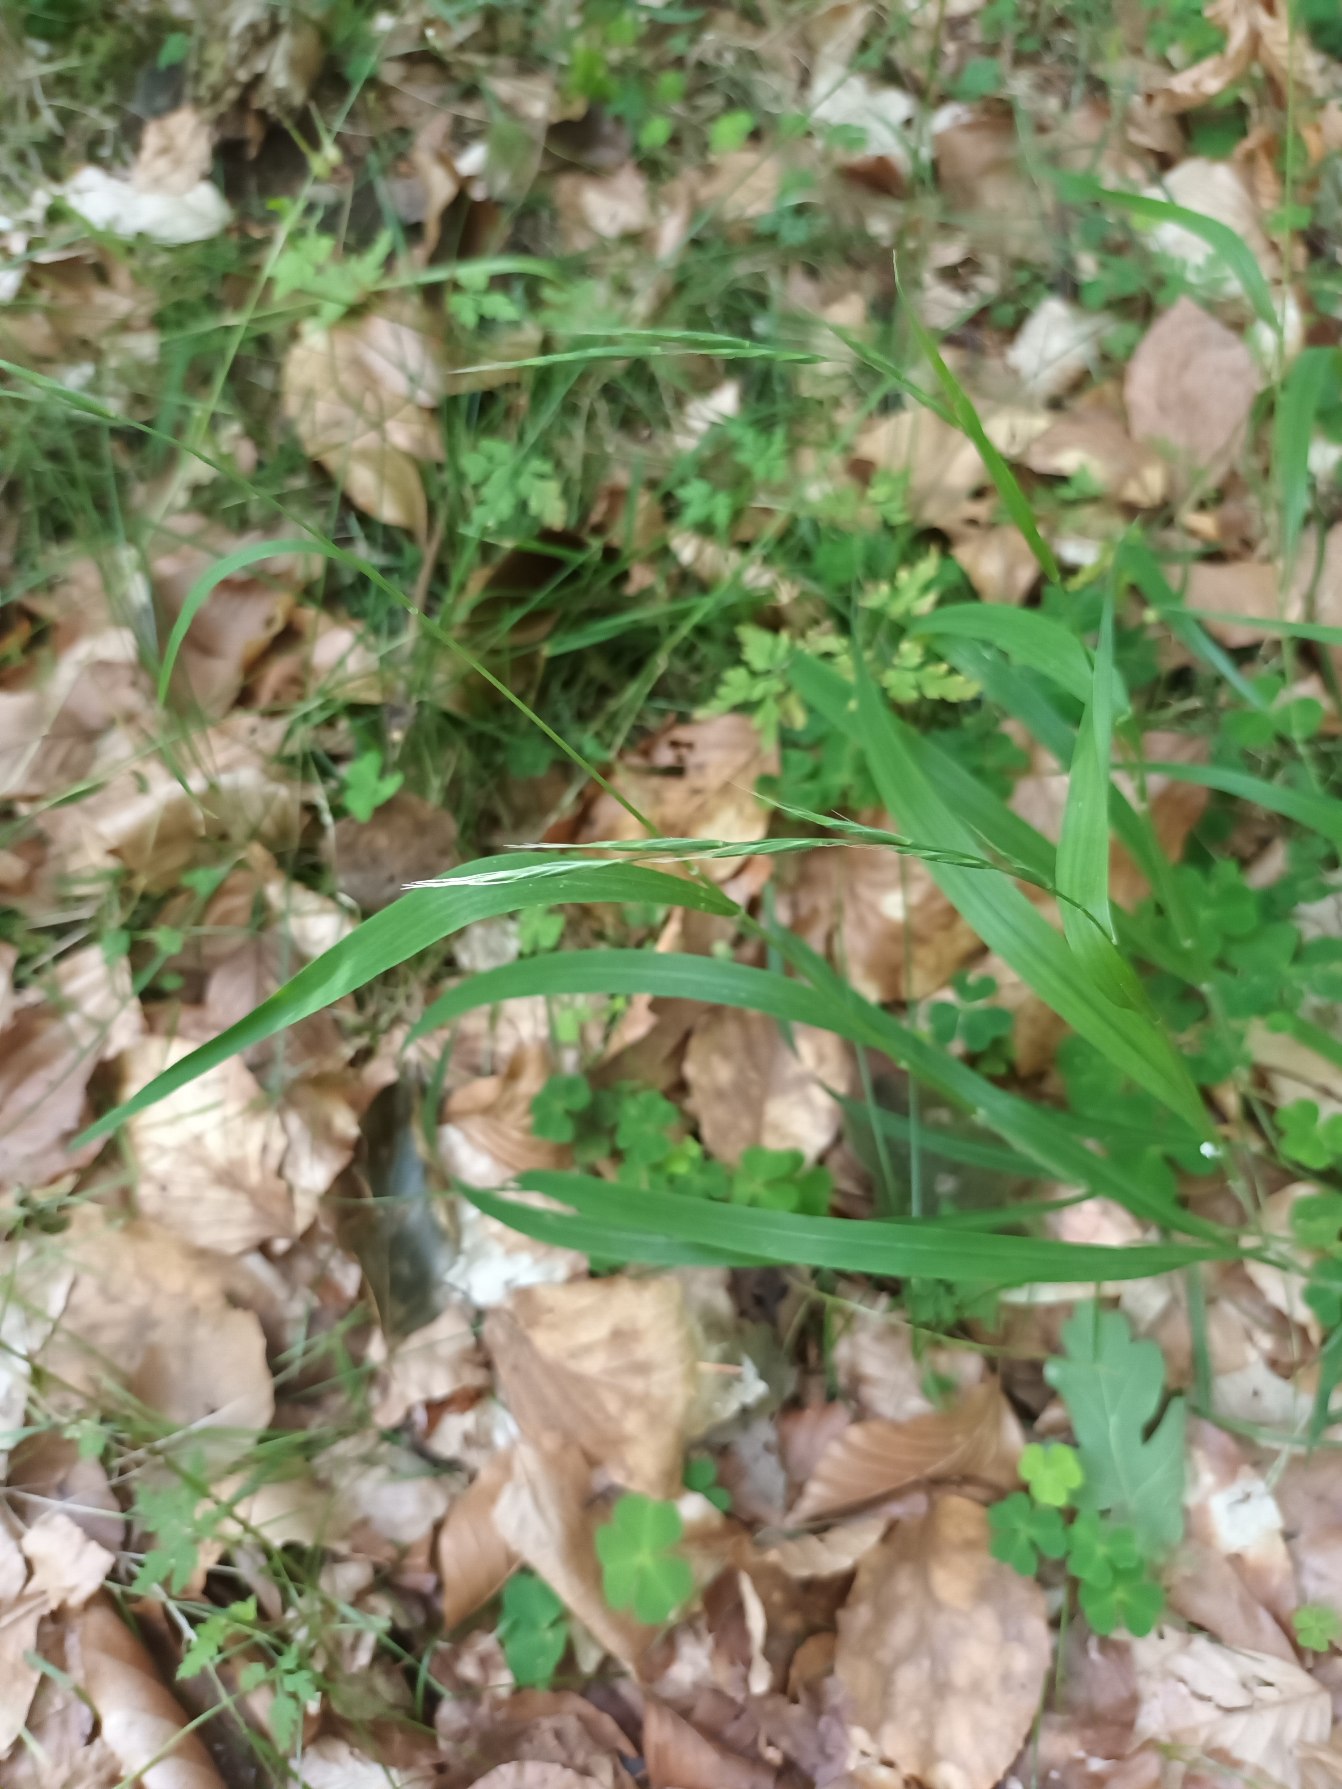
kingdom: Plantae
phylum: Tracheophyta
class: Liliopsida
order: Poales
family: Poaceae
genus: Brachypodium
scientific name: Brachypodium sylvaticum
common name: Skov-stilkaks
